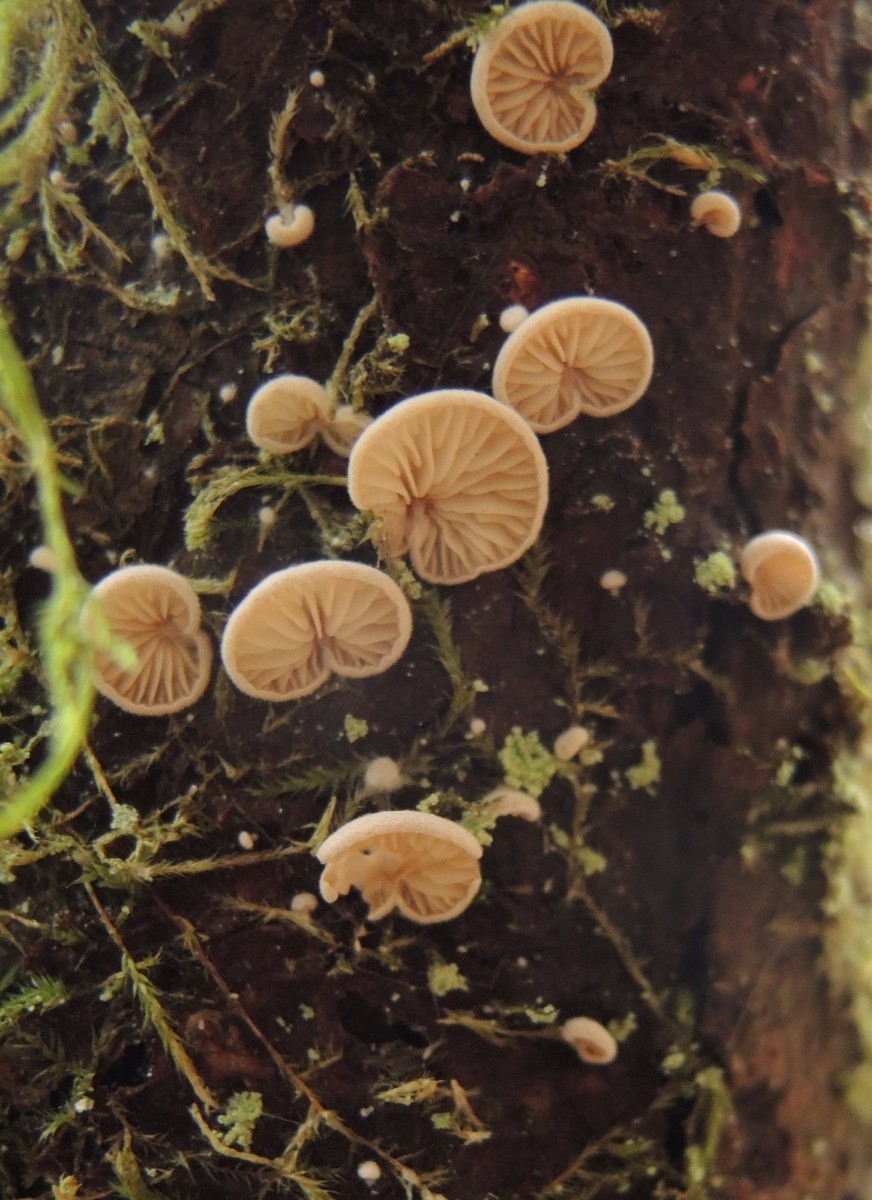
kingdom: Fungi
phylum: Basidiomycota
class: Agaricomycetes
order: Agaricales
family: Entolomataceae
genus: Clitopilus
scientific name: Clitopilus hobsonii
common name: Miller's oysterling
